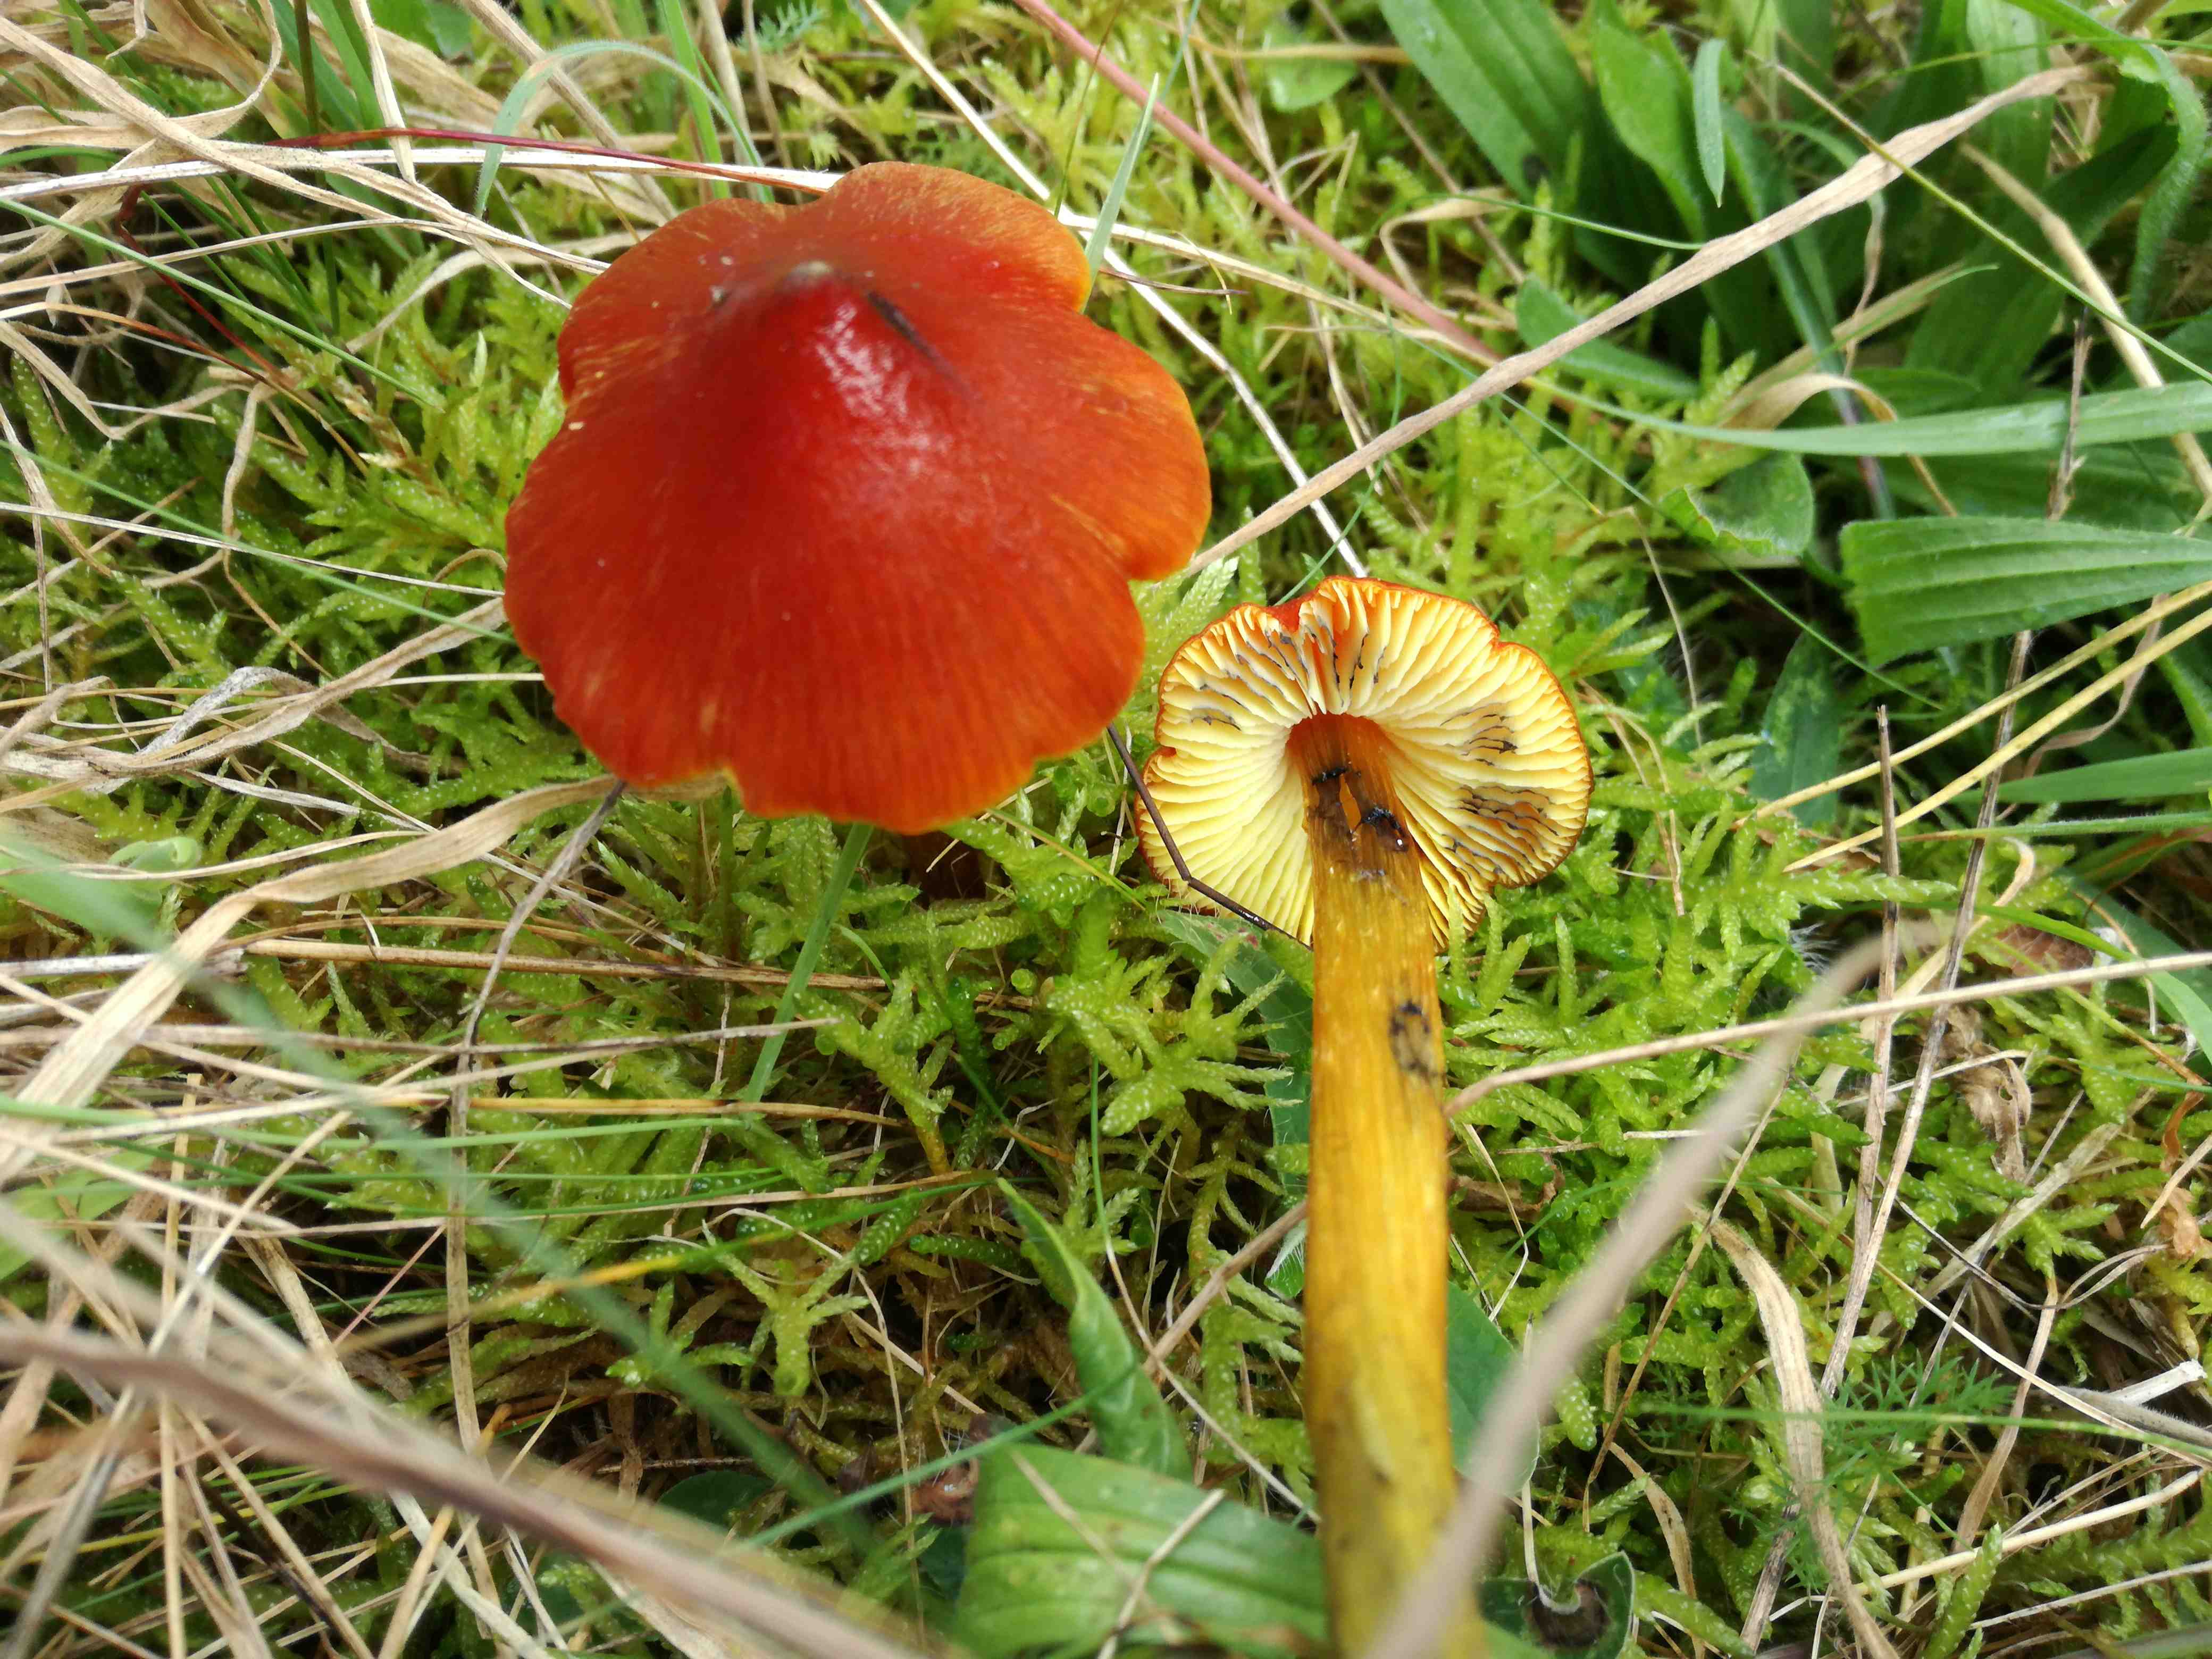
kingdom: Fungi
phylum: Basidiomycota
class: Agaricomycetes
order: Agaricales
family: Hygrophoraceae
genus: Hygrocybe
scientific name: Hygrocybe conica
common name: kegle-vokshat
